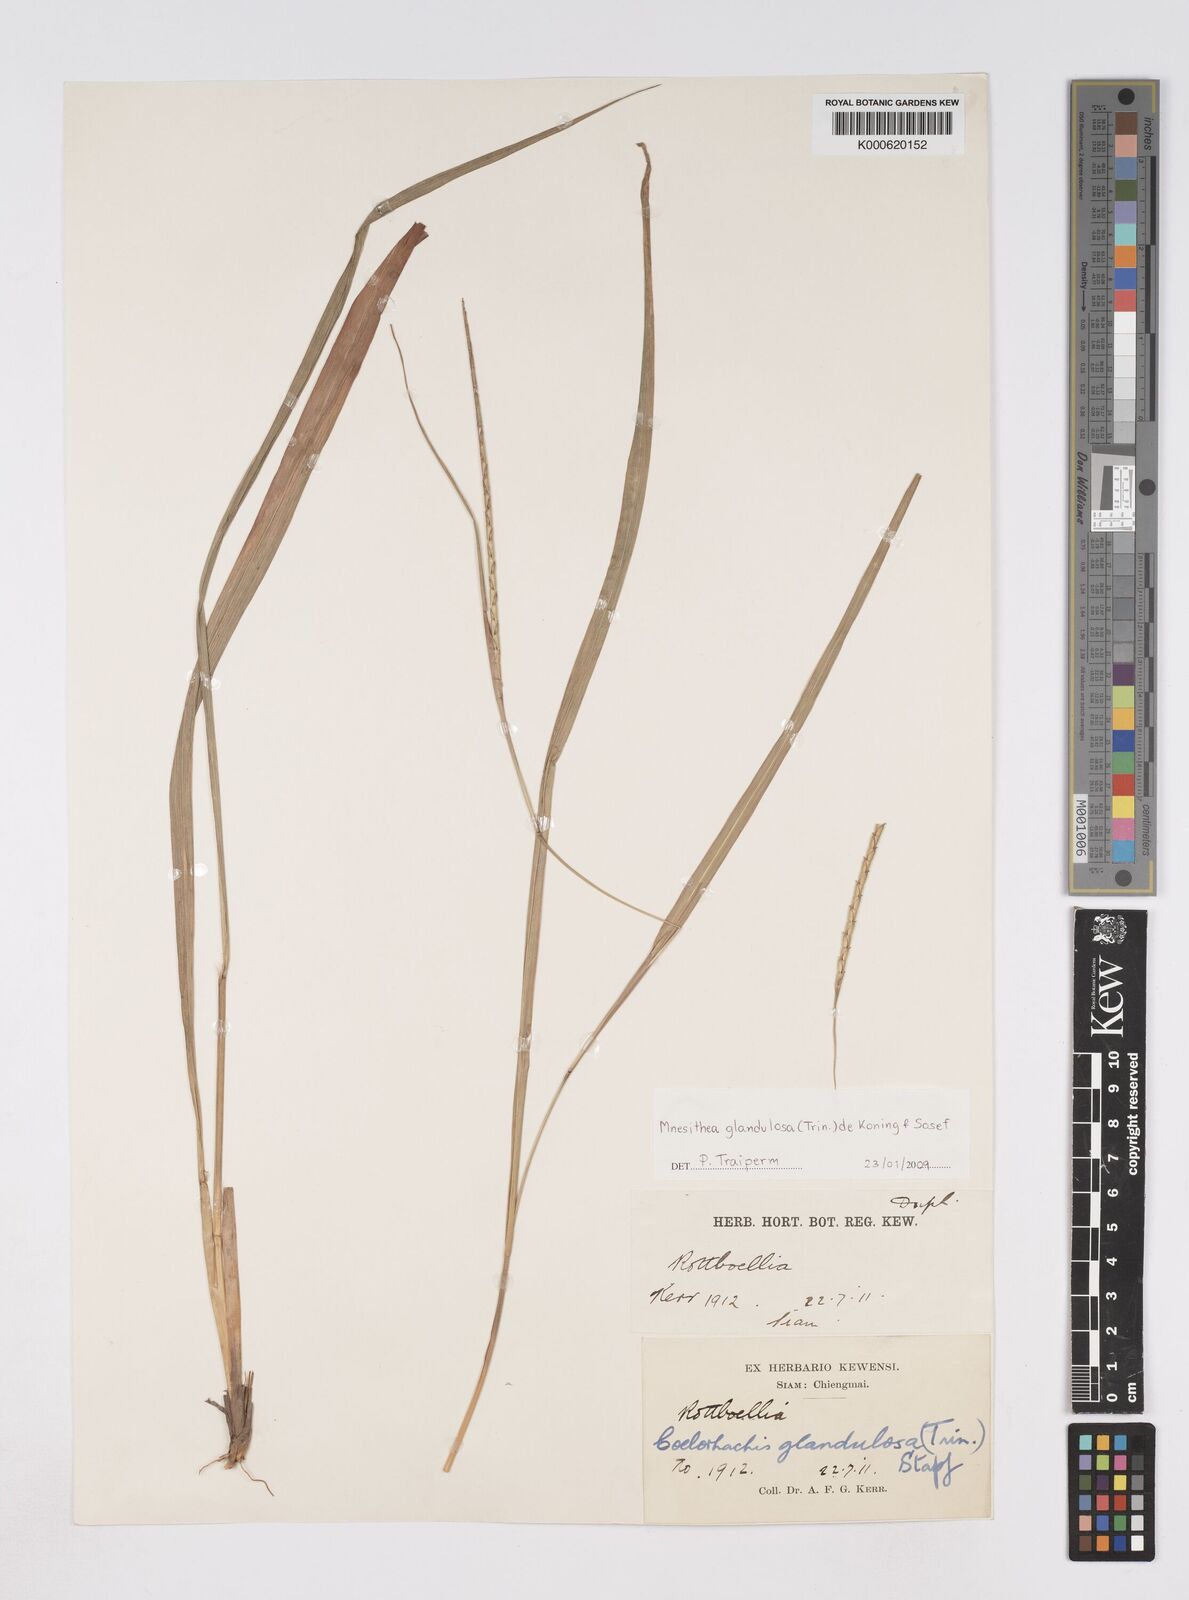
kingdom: Plantae
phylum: Tracheophyta
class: Liliopsida
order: Poales
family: Poaceae
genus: Rottboellia
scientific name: Rottboellia glandulosa
